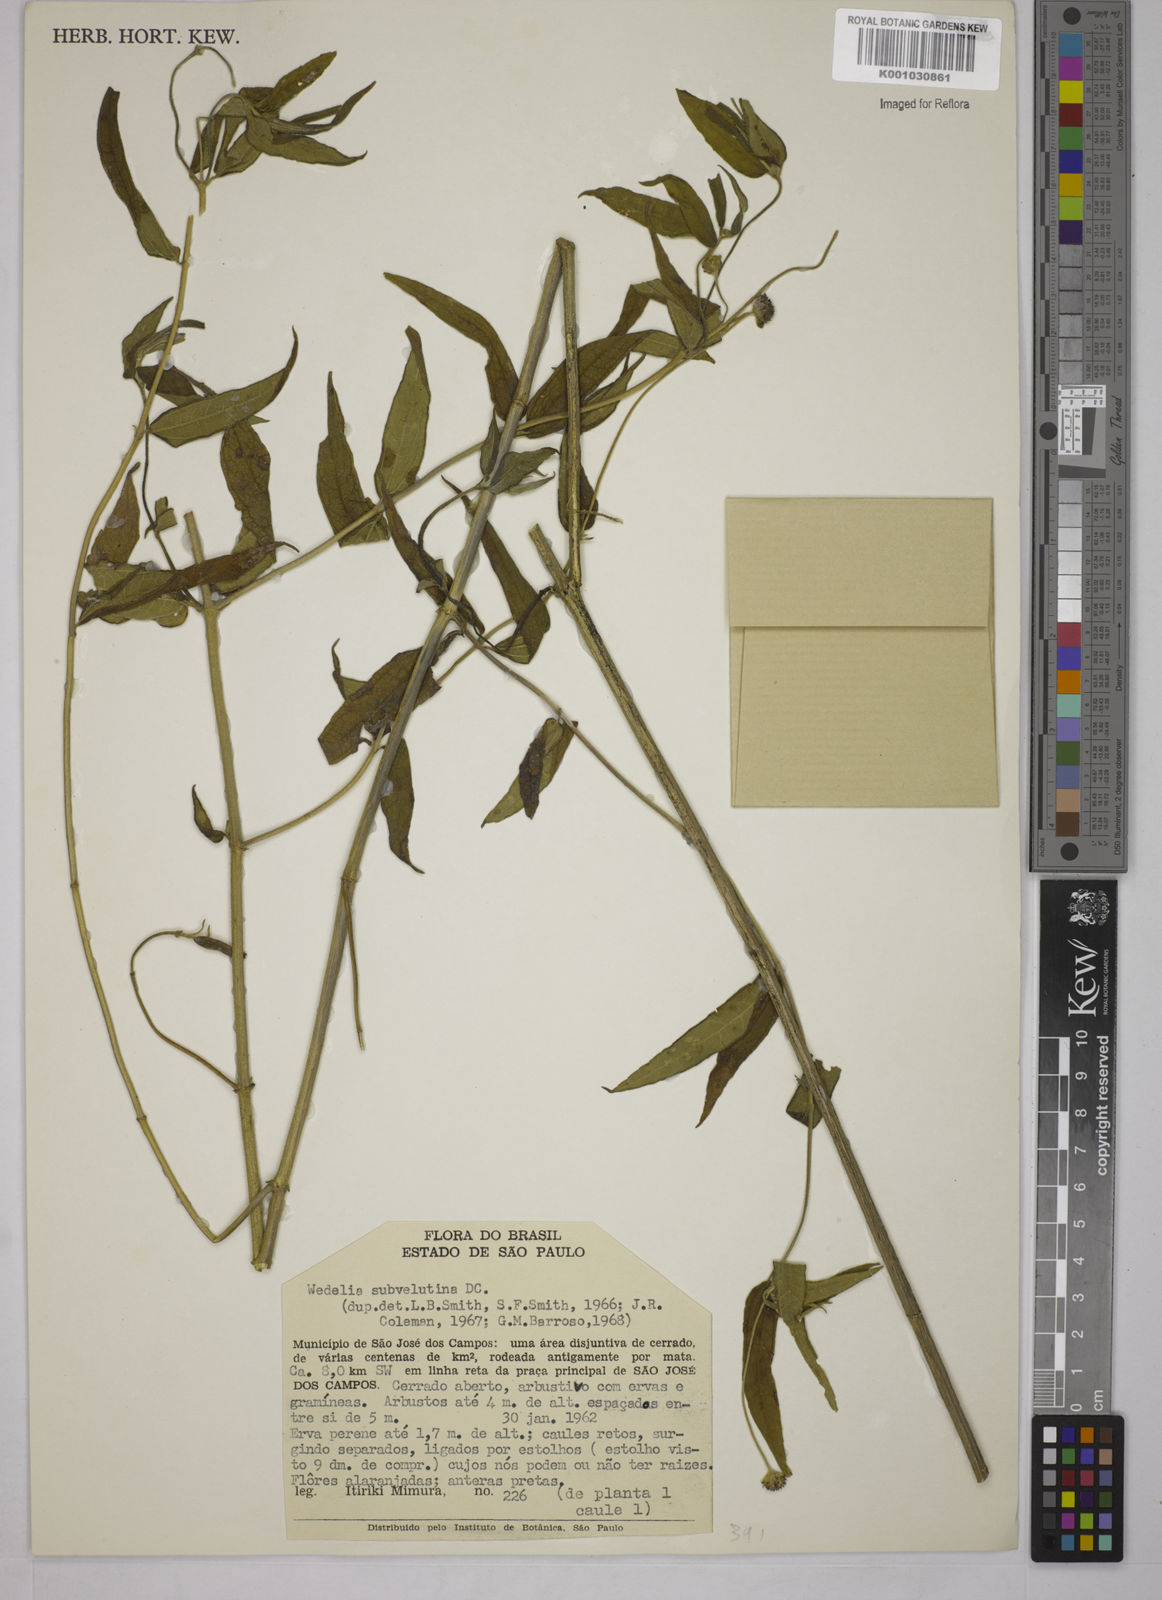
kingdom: Plantae
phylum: Tracheophyta
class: Magnoliopsida
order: Asterales
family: Asteraceae
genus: Wedelia
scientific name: Wedelia subvelutina
